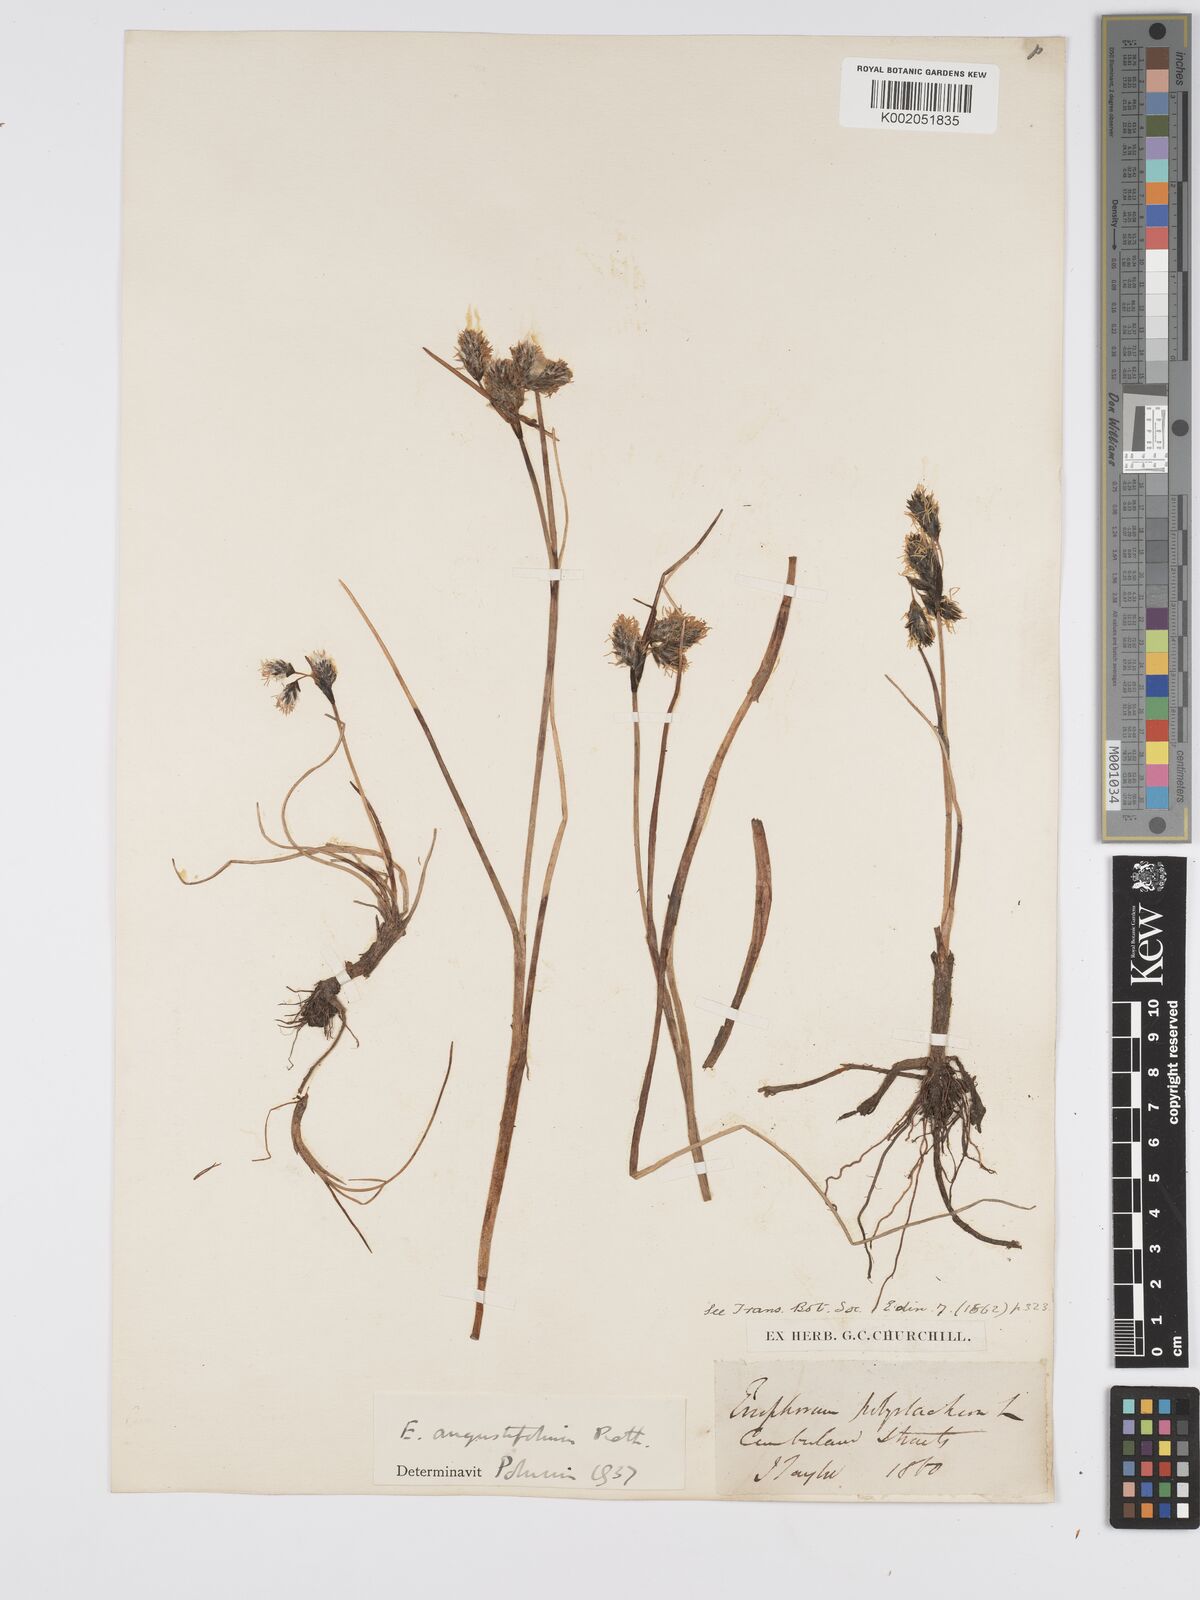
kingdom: Plantae
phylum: Tracheophyta
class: Liliopsida
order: Poales
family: Cyperaceae
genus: Eriophorum
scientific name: Eriophorum angustifolium
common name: Common cottongrass
